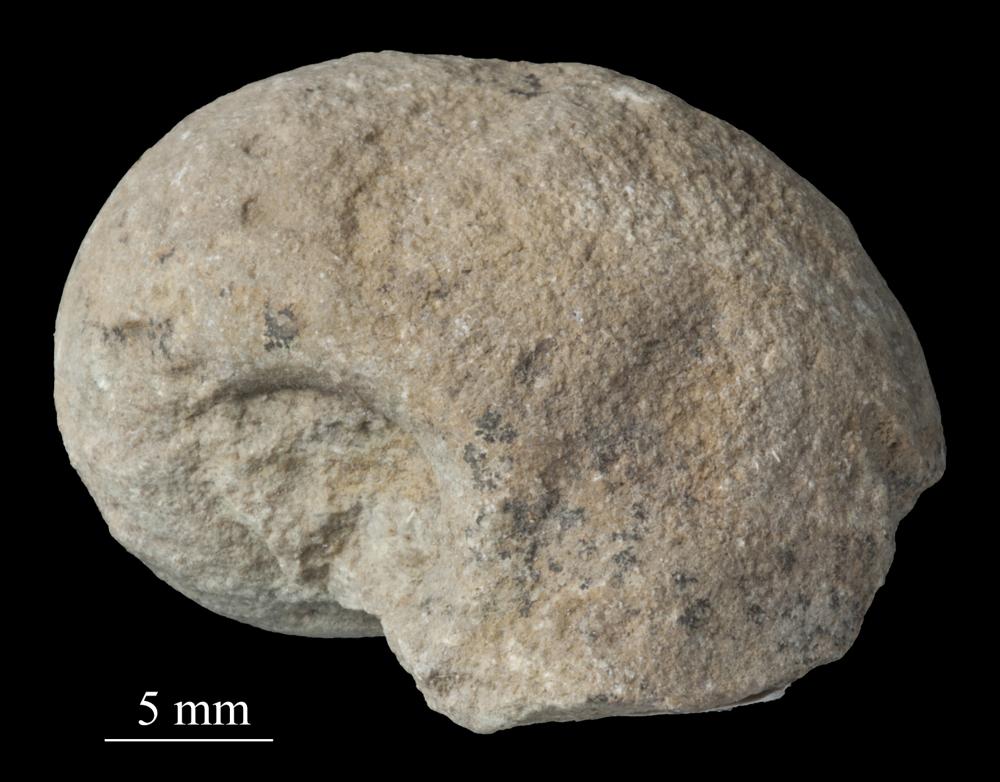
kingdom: Animalia
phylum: Mollusca
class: Gastropoda
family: Bellerophontidae
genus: Bellerophon
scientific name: Bellerophon
